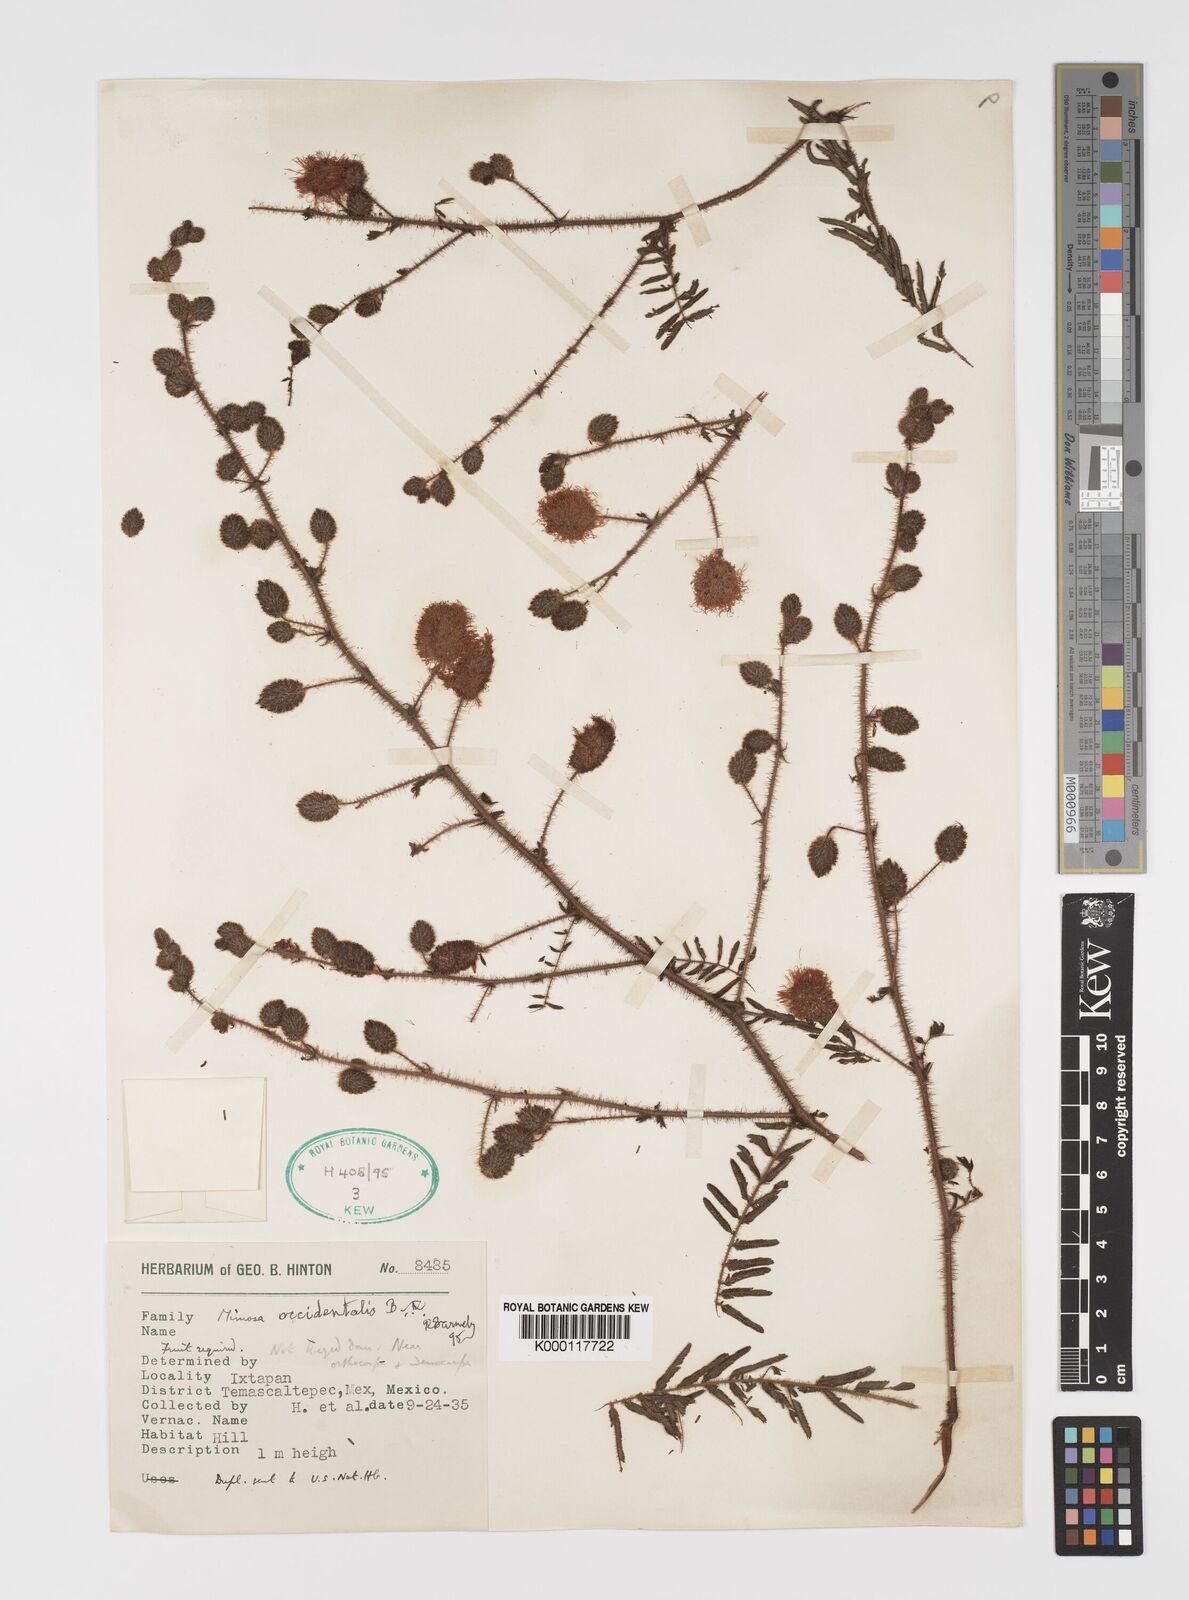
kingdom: Plantae
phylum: Tracheophyta
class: Magnoliopsida
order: Fabales
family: Fabaceae
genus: Mimosa
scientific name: Mimosa occidentalis
